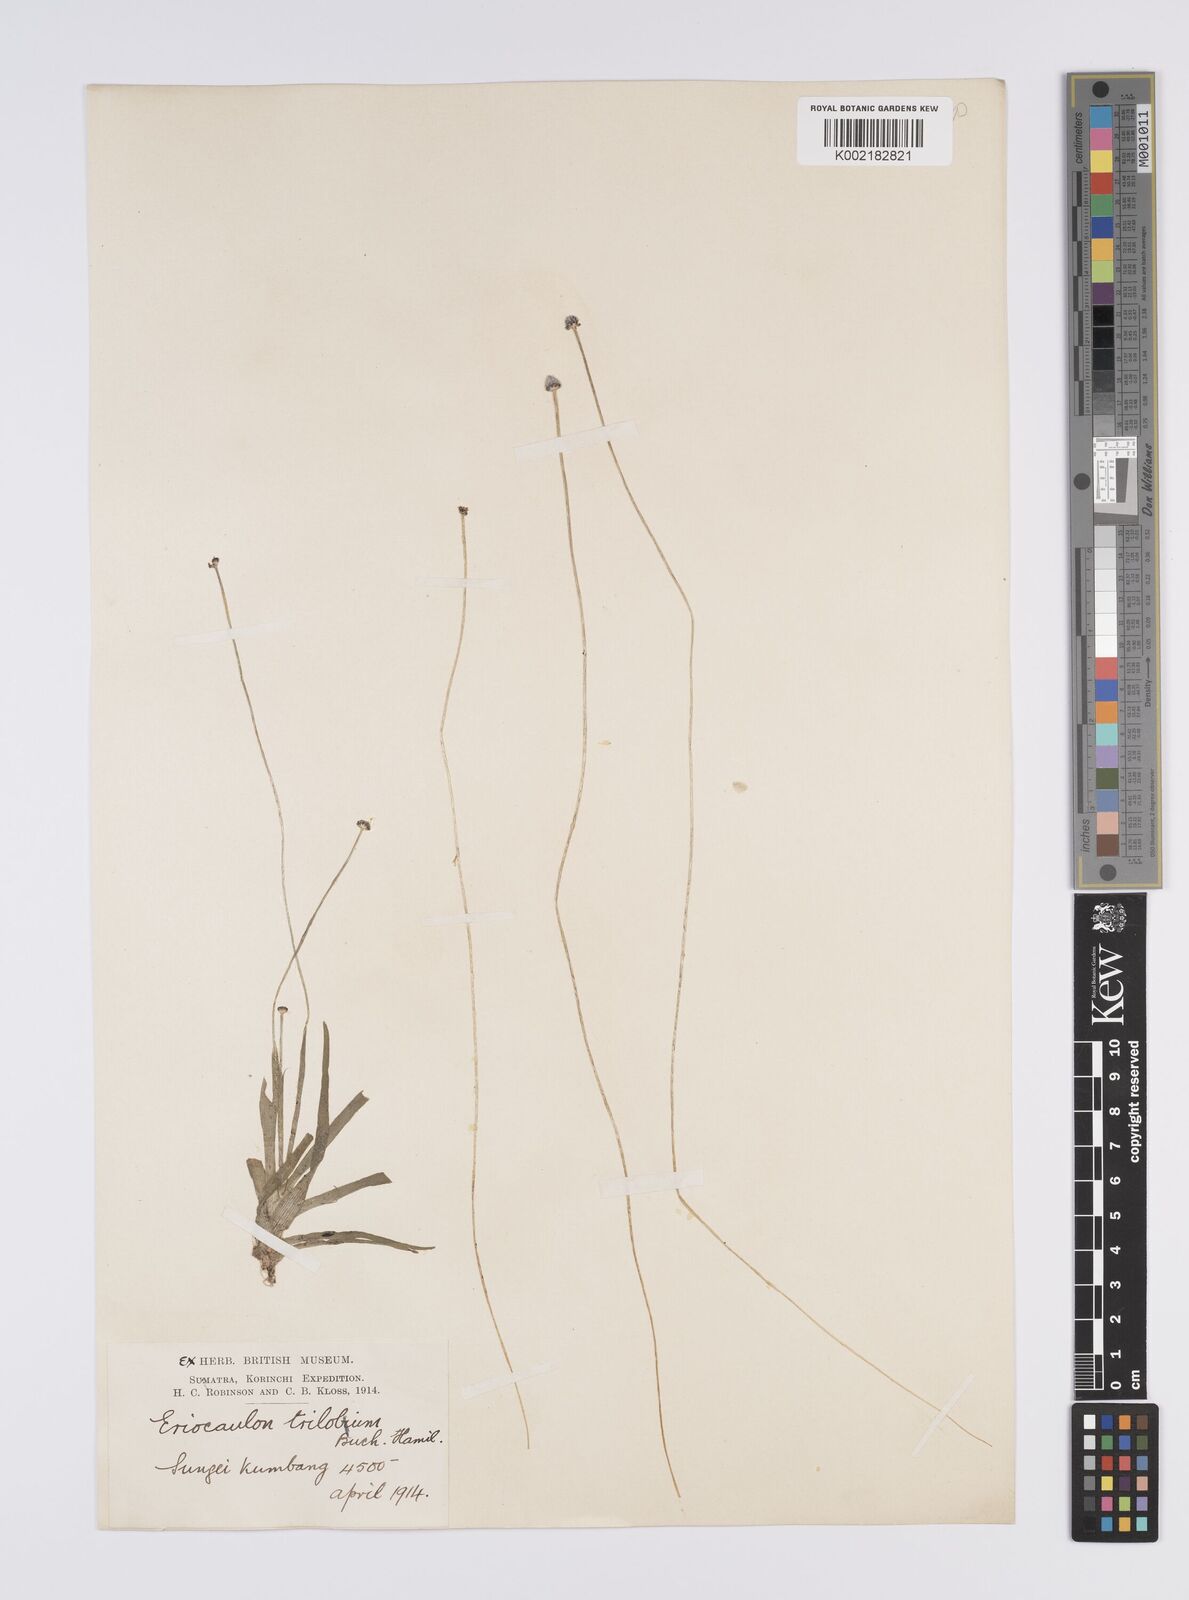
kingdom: Plantae
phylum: Tracheophyta
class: Liliopsida
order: Poales
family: Eriocaulaceae
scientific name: Eriocaulaceae
